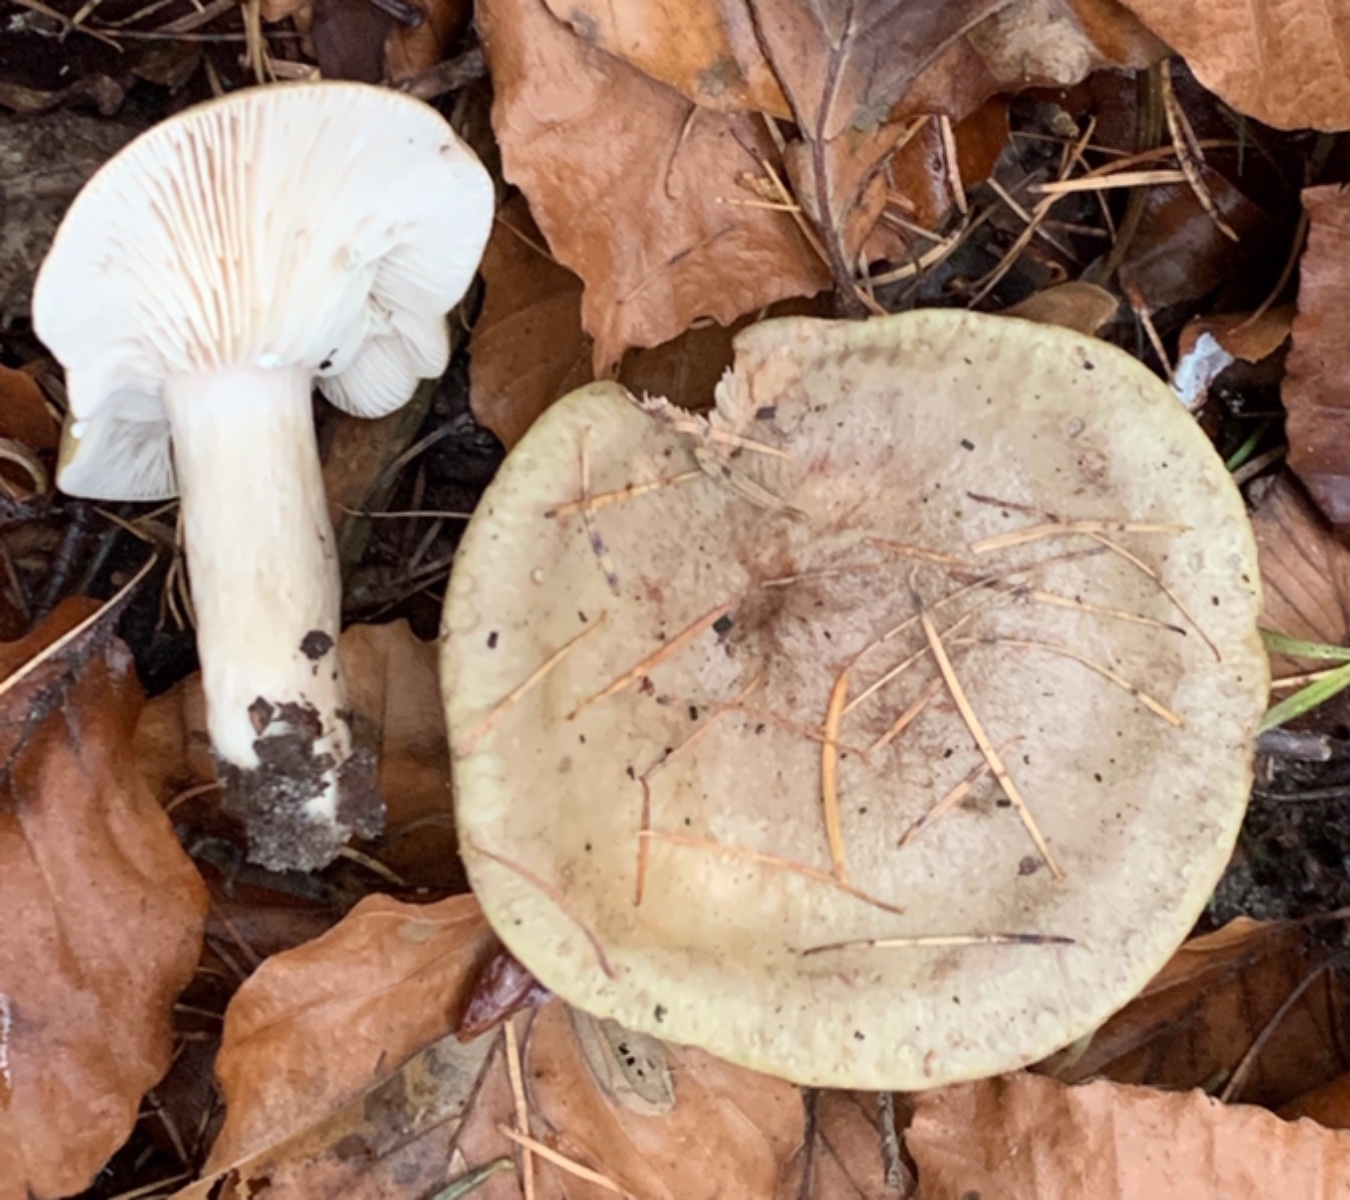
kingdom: Fungi
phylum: Basidiomycota
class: Agaricomycetes
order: Russulales
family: Russulaceae
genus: Lactarius
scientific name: Lactarius blennius
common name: dråbeplettet mælkehat
